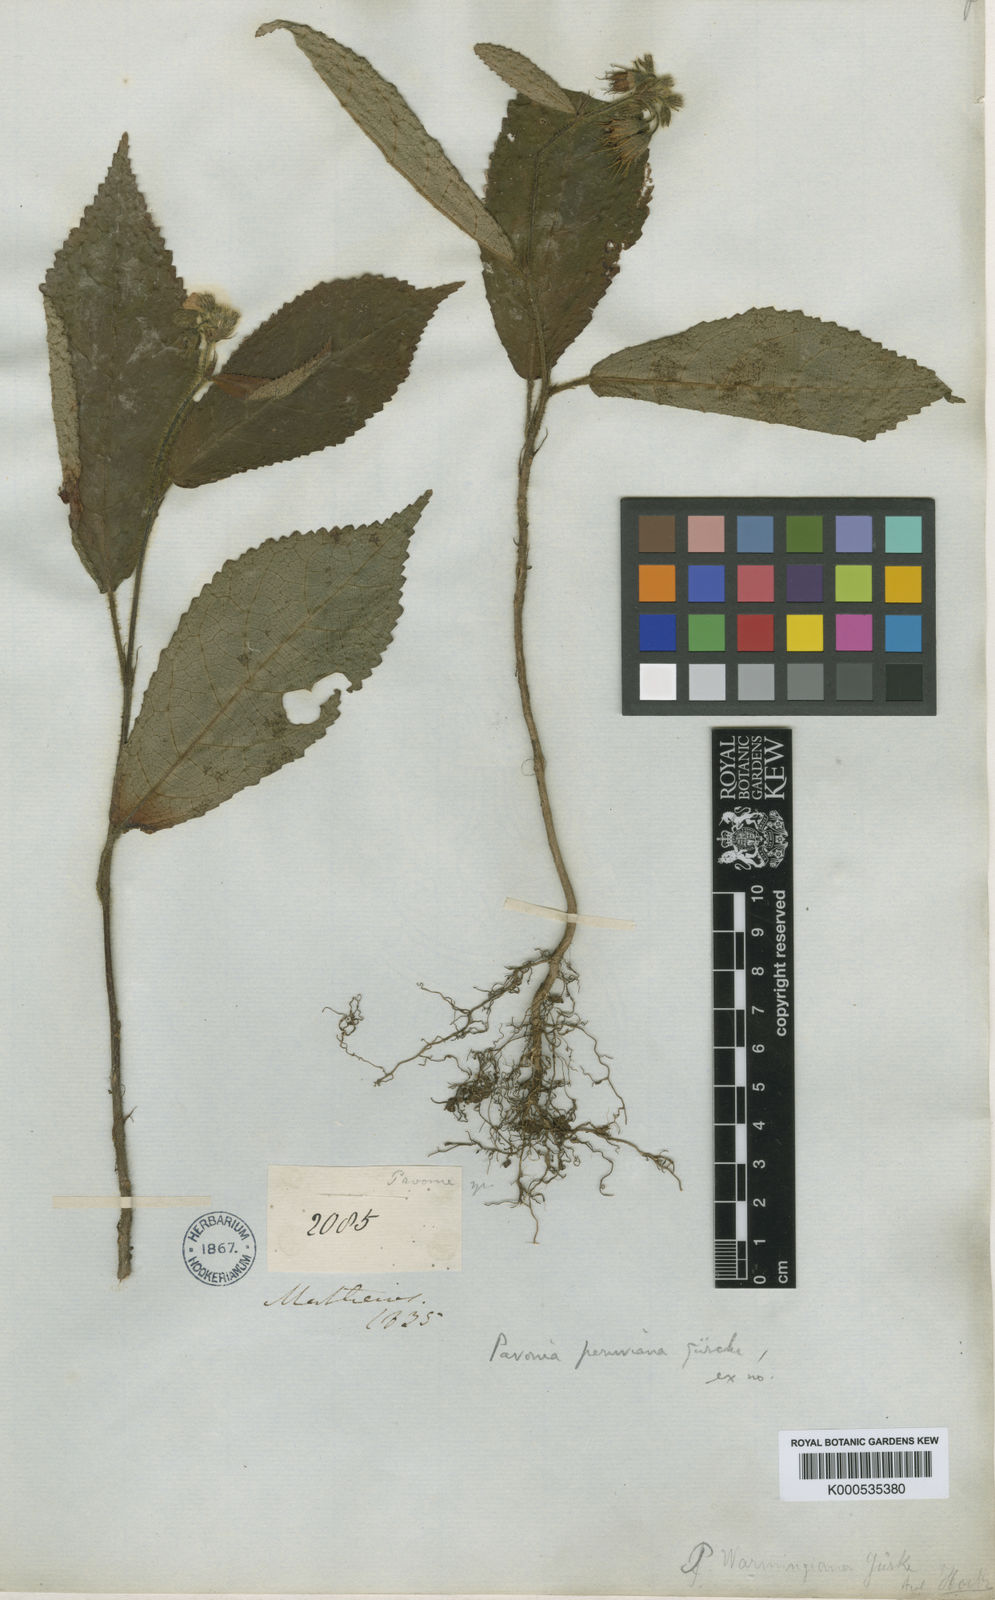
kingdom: Plantae
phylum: Tracheophyta
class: Magnoliopsida
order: Malvales
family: Malvaceae
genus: Pavonia
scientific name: Pavonia
